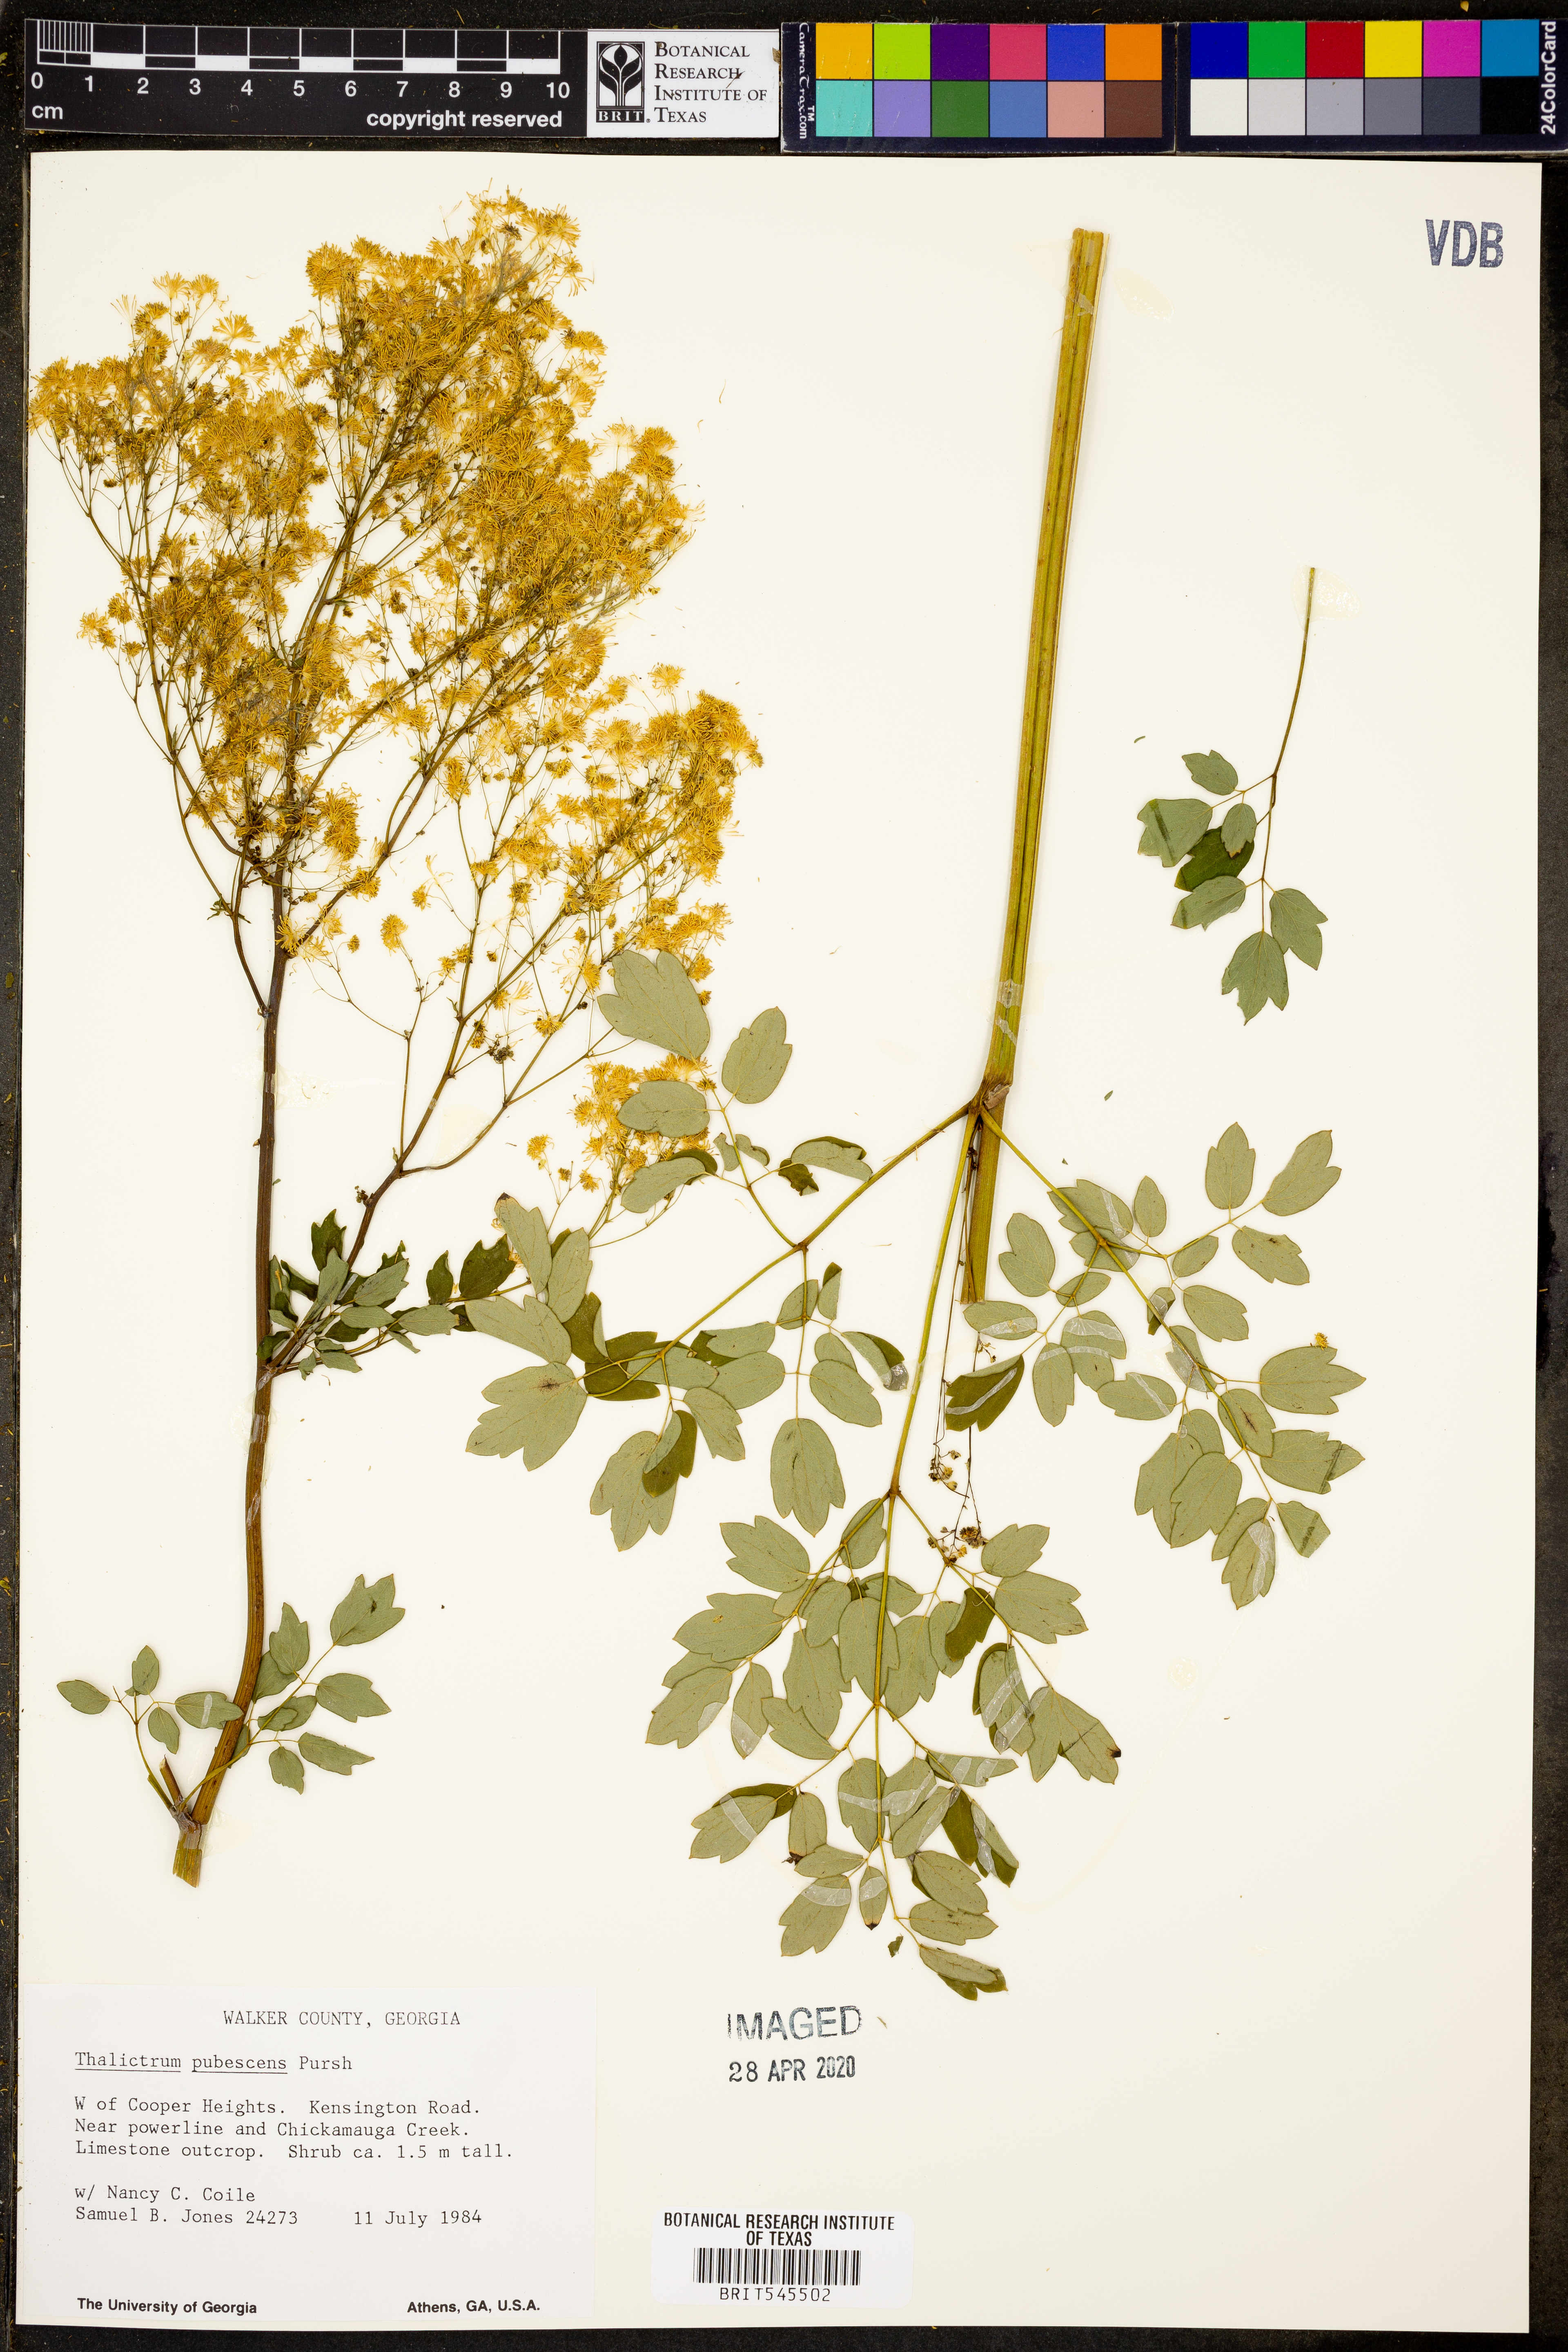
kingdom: Plantae
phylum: Tracheophyta
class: Magnoliopsida
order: Ranunculales
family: Ranunculaceae
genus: Thalictrum
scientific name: Thalictrum pubescens
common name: King-of-the-meadow
